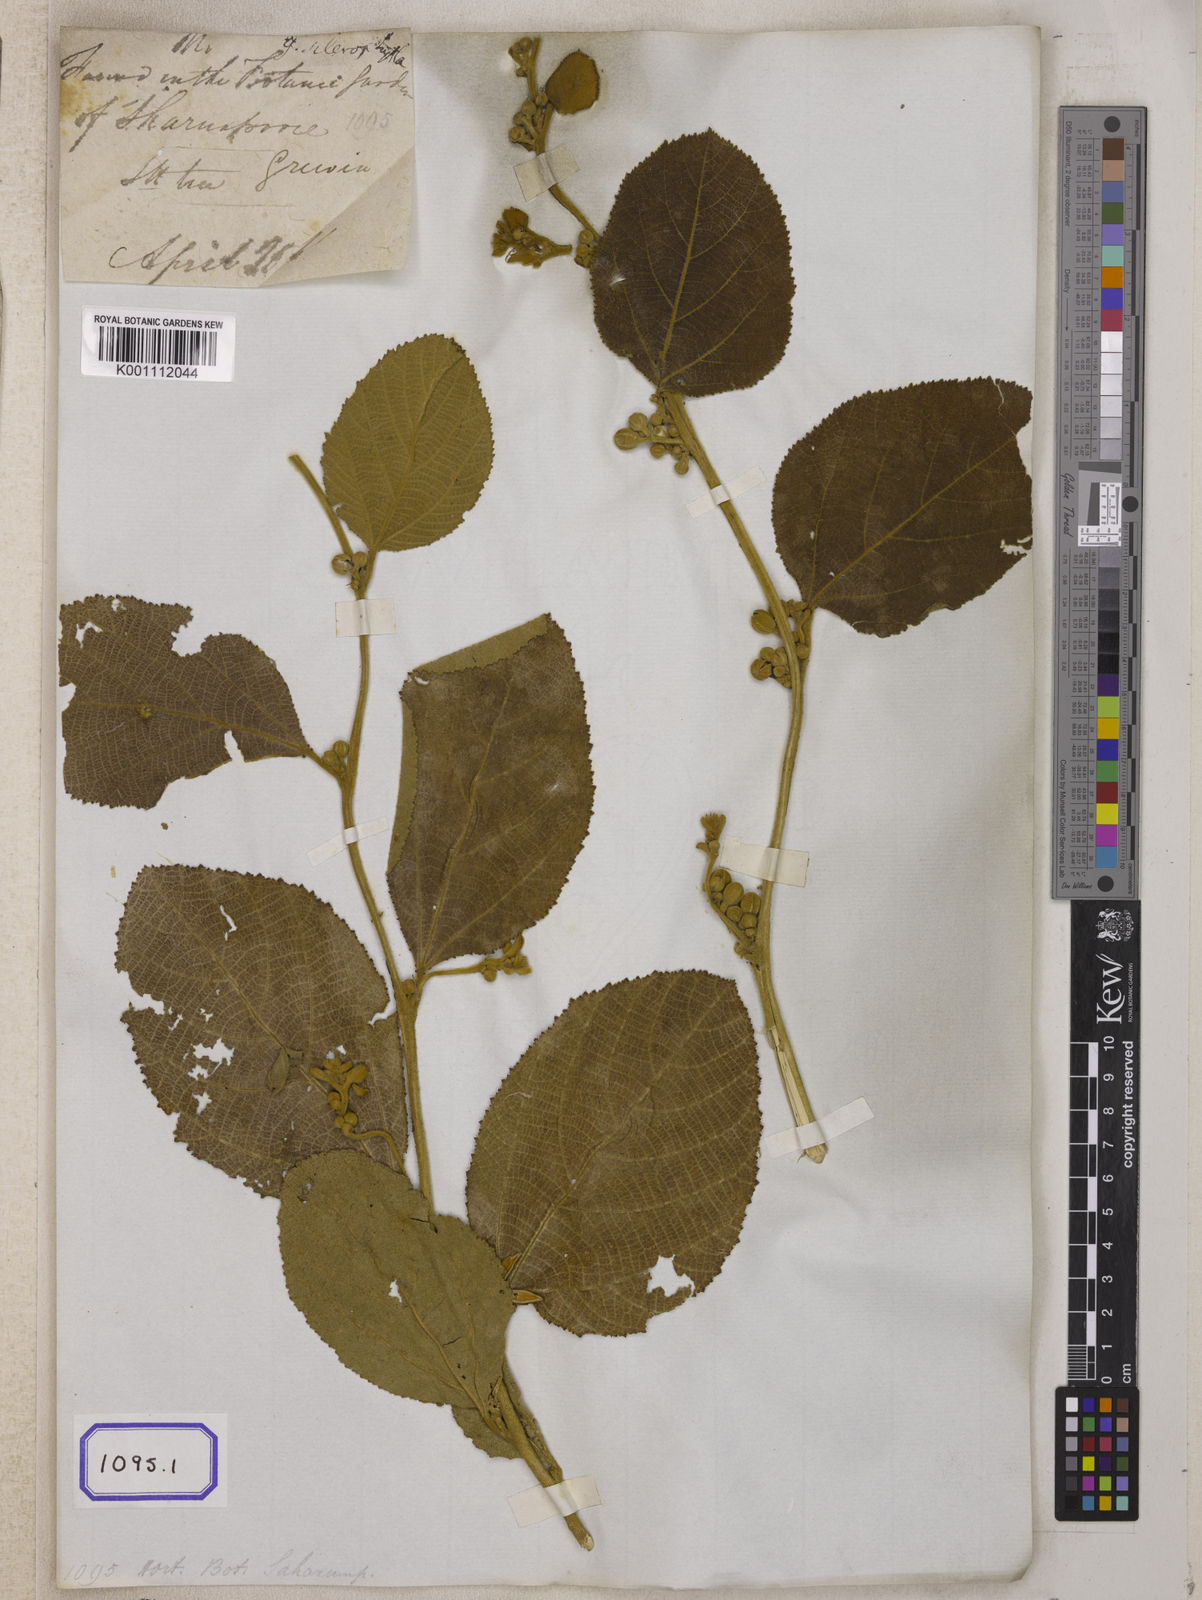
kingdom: Plantae
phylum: Tracheophyta
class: Magnoliopsida
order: Malvales
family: Malvaceae
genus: Grewia
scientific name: Grewia
